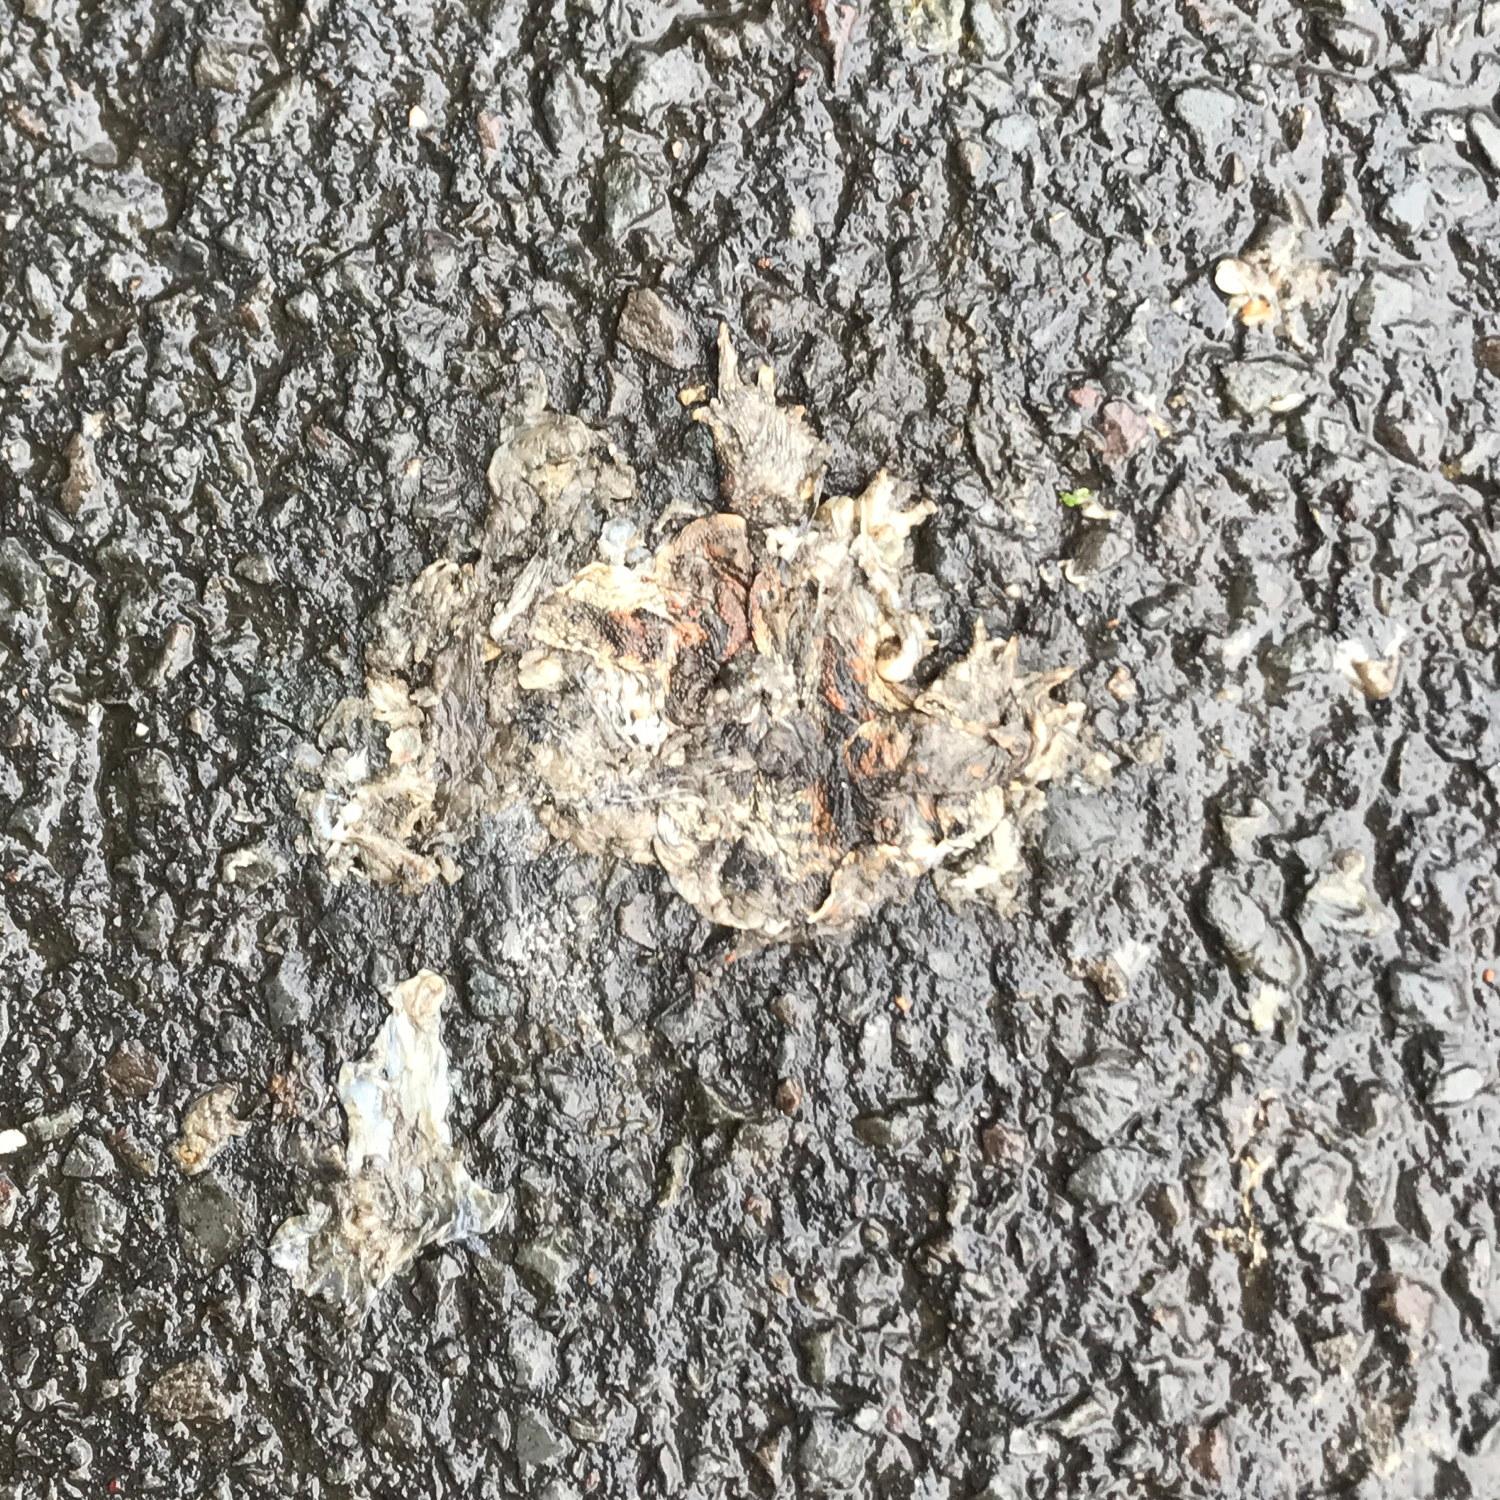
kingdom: Animalia
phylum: Chordata
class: Amphibia
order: Anura
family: Bufonidae
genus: Bufo
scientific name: Bufo bufo
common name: Common toad
